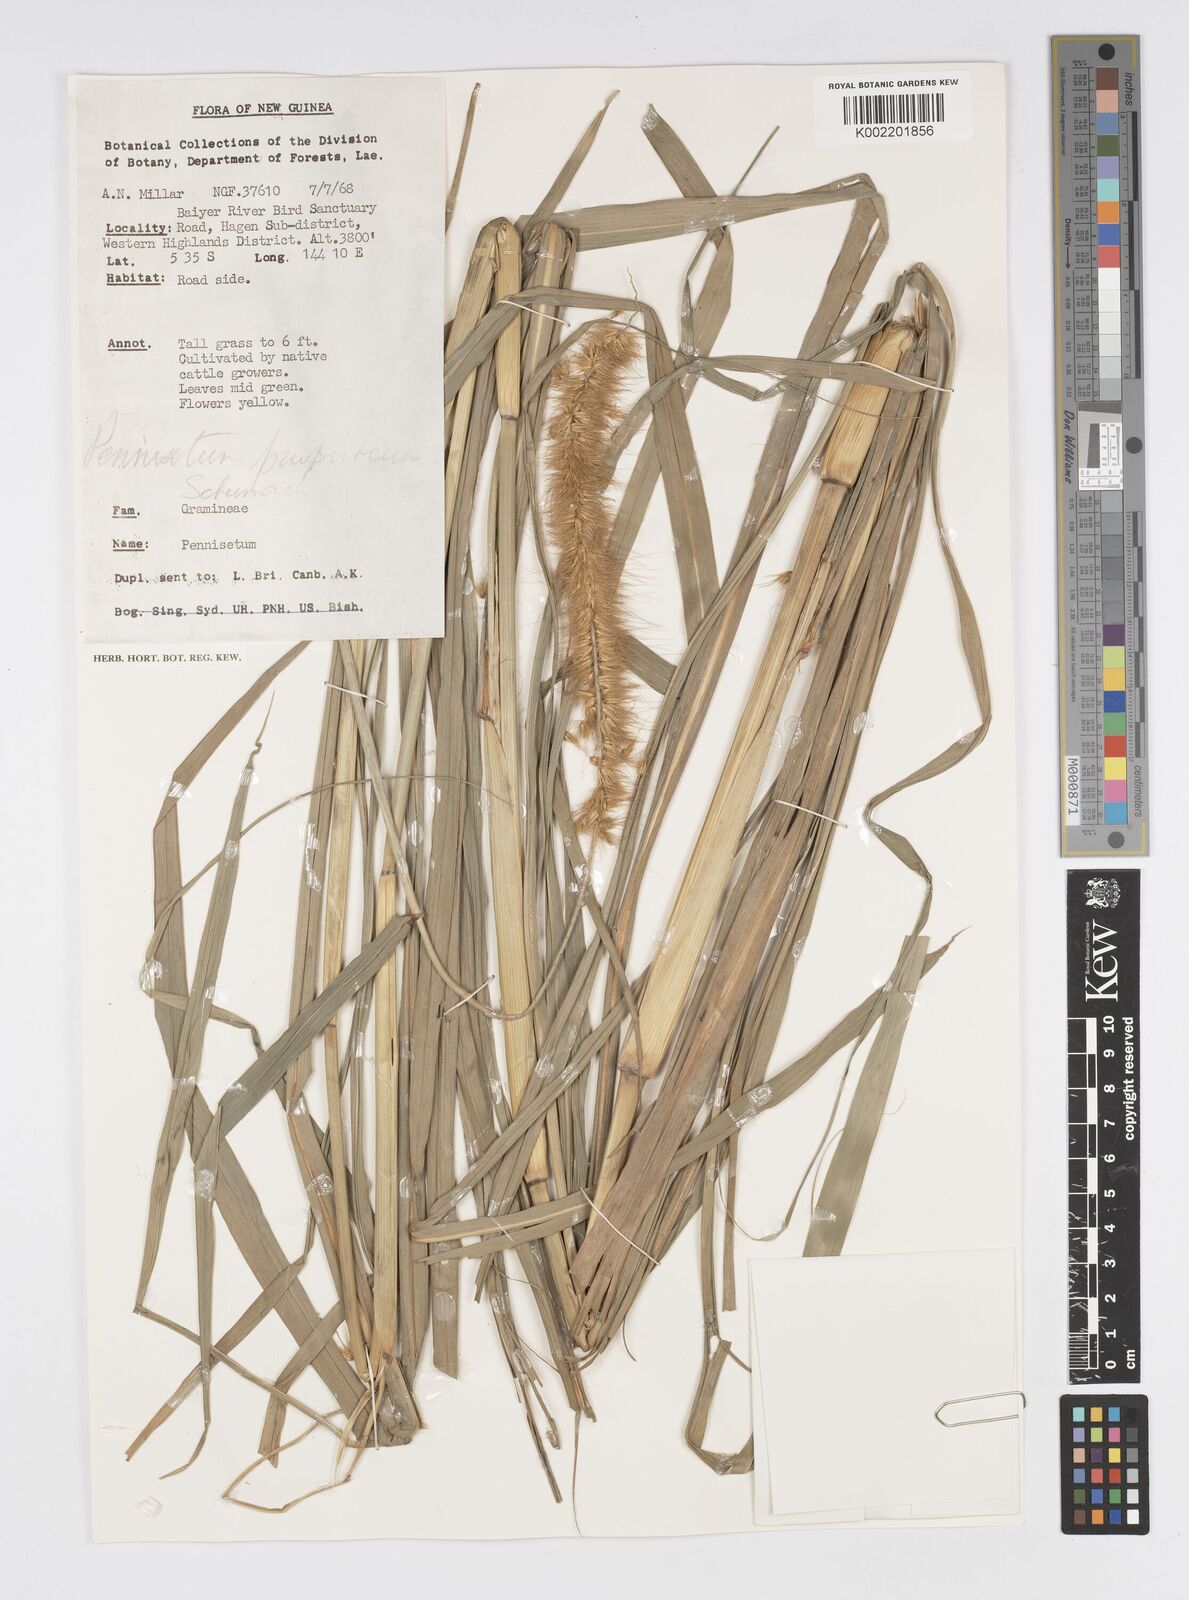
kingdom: Plantae
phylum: Tracheophyta
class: Liliopsida
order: Poales
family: Poaceae
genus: Cenchrus
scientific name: Cenchrus purpureus
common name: Elephant grass
